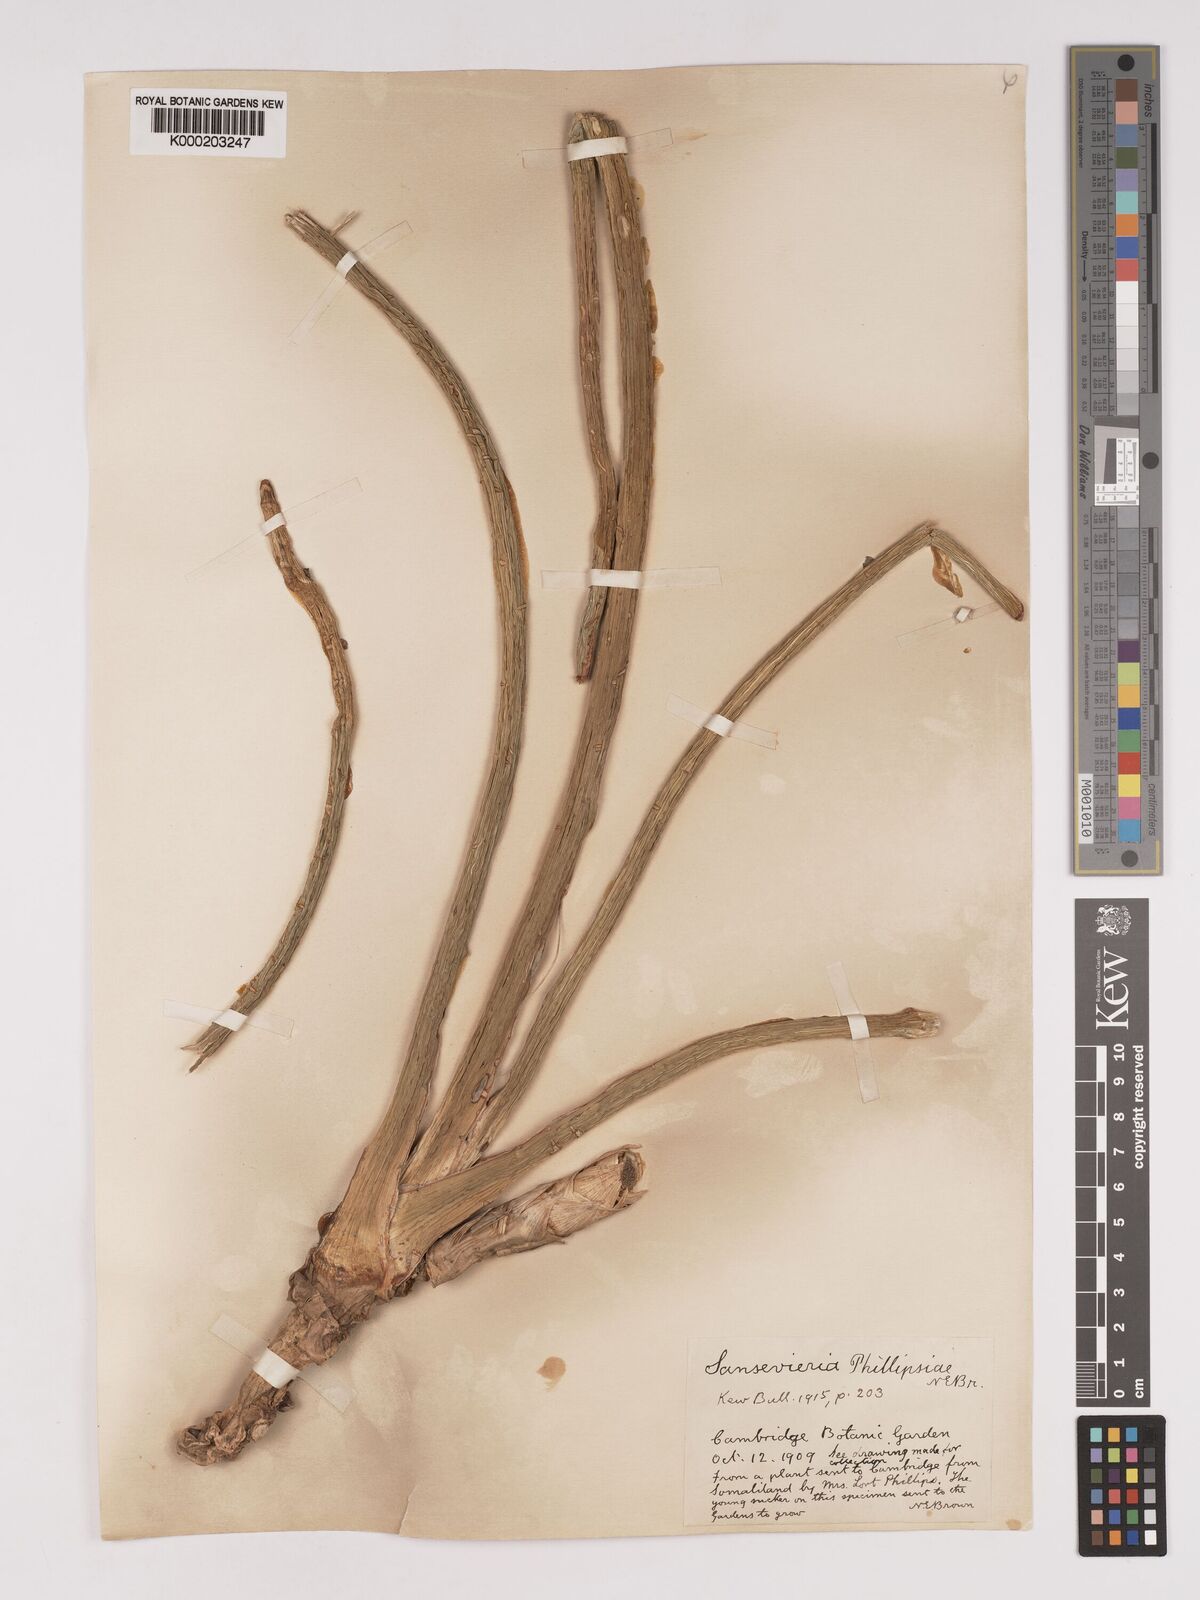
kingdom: Plantae
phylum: Tracheophyta
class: Liliopsida
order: Asparagales
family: Asparagaceae
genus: Dracaena
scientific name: Dracaena phillipsiae
